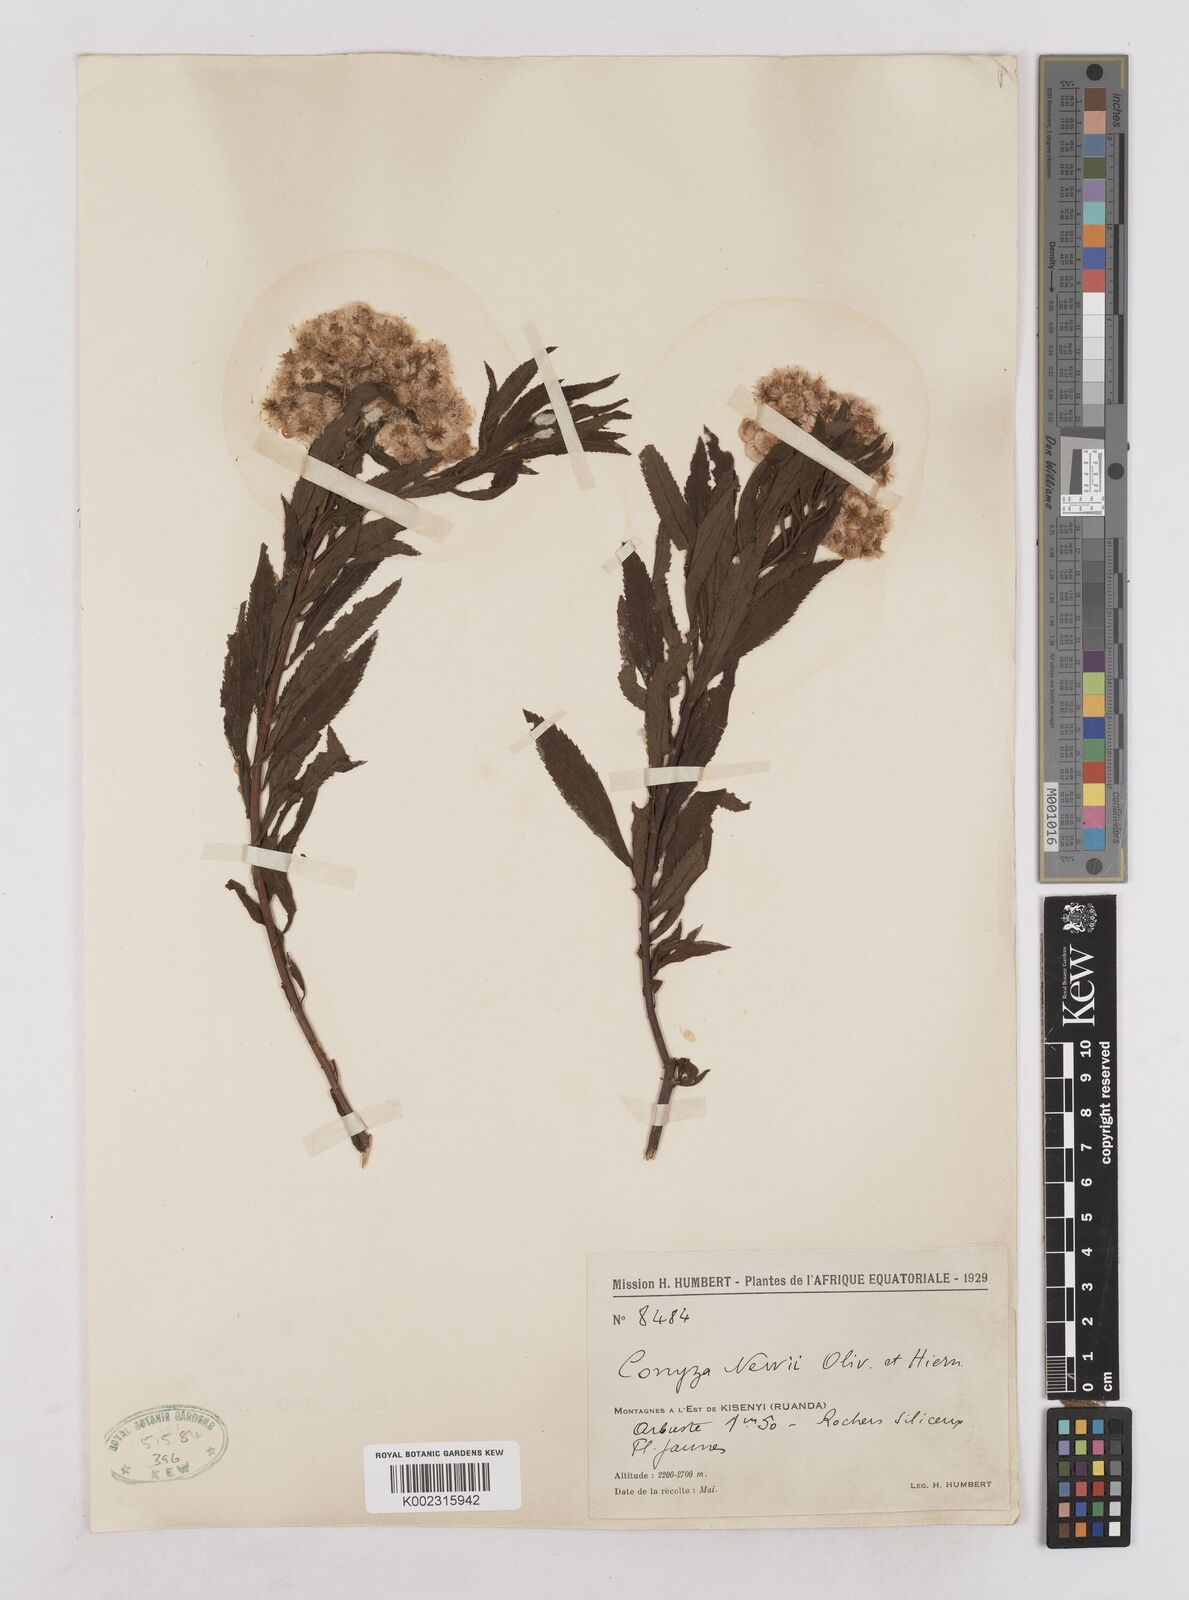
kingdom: Plantae
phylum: Tracheophyta
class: Magnoliopsida
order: Asterales
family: Asteraceae
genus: Conyza
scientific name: Conyza newii
